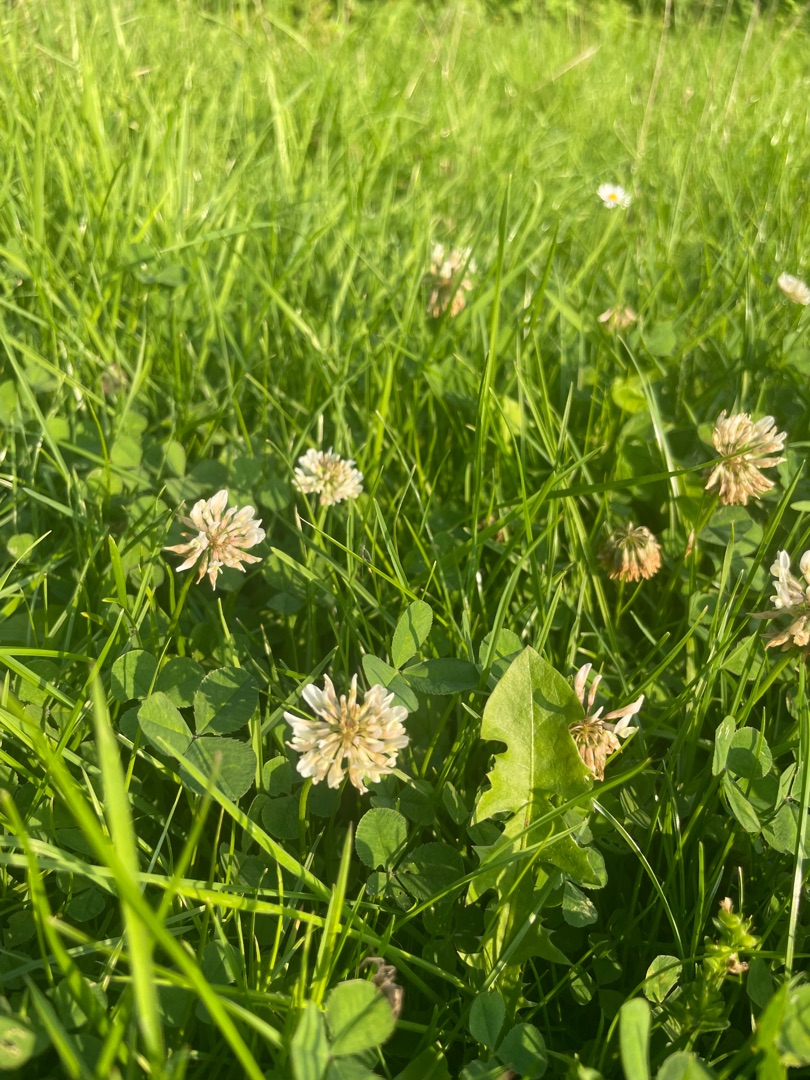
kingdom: Plantae
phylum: Tracheophyta
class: Magnoliopsida
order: Fabales
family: Fabaceae
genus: Trifolium
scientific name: Trifolium repens
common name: Hvid-kløver
